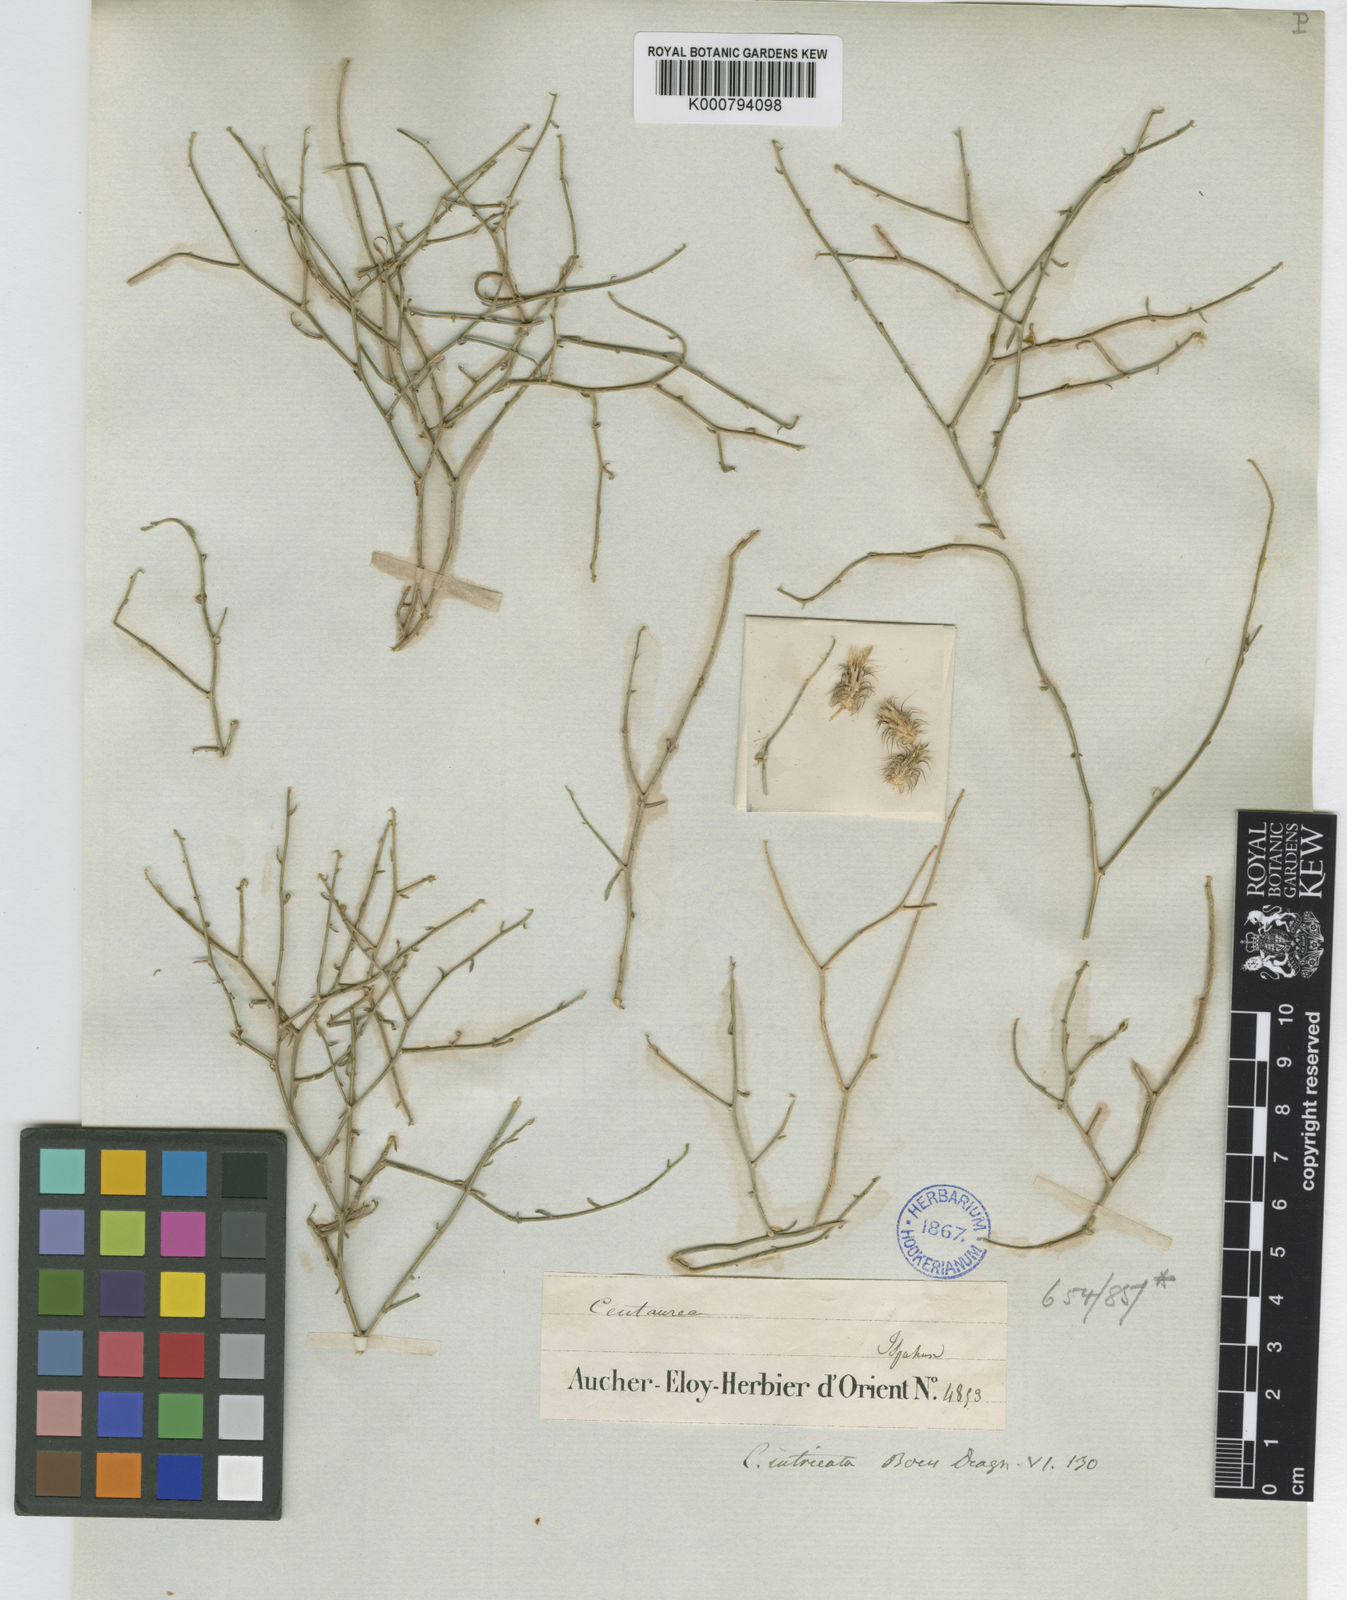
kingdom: Plantae
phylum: Tracheophyta
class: Magnoliopsida
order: Asterales
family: Asteraceae
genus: Centaurea
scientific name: Centaurea intricata
